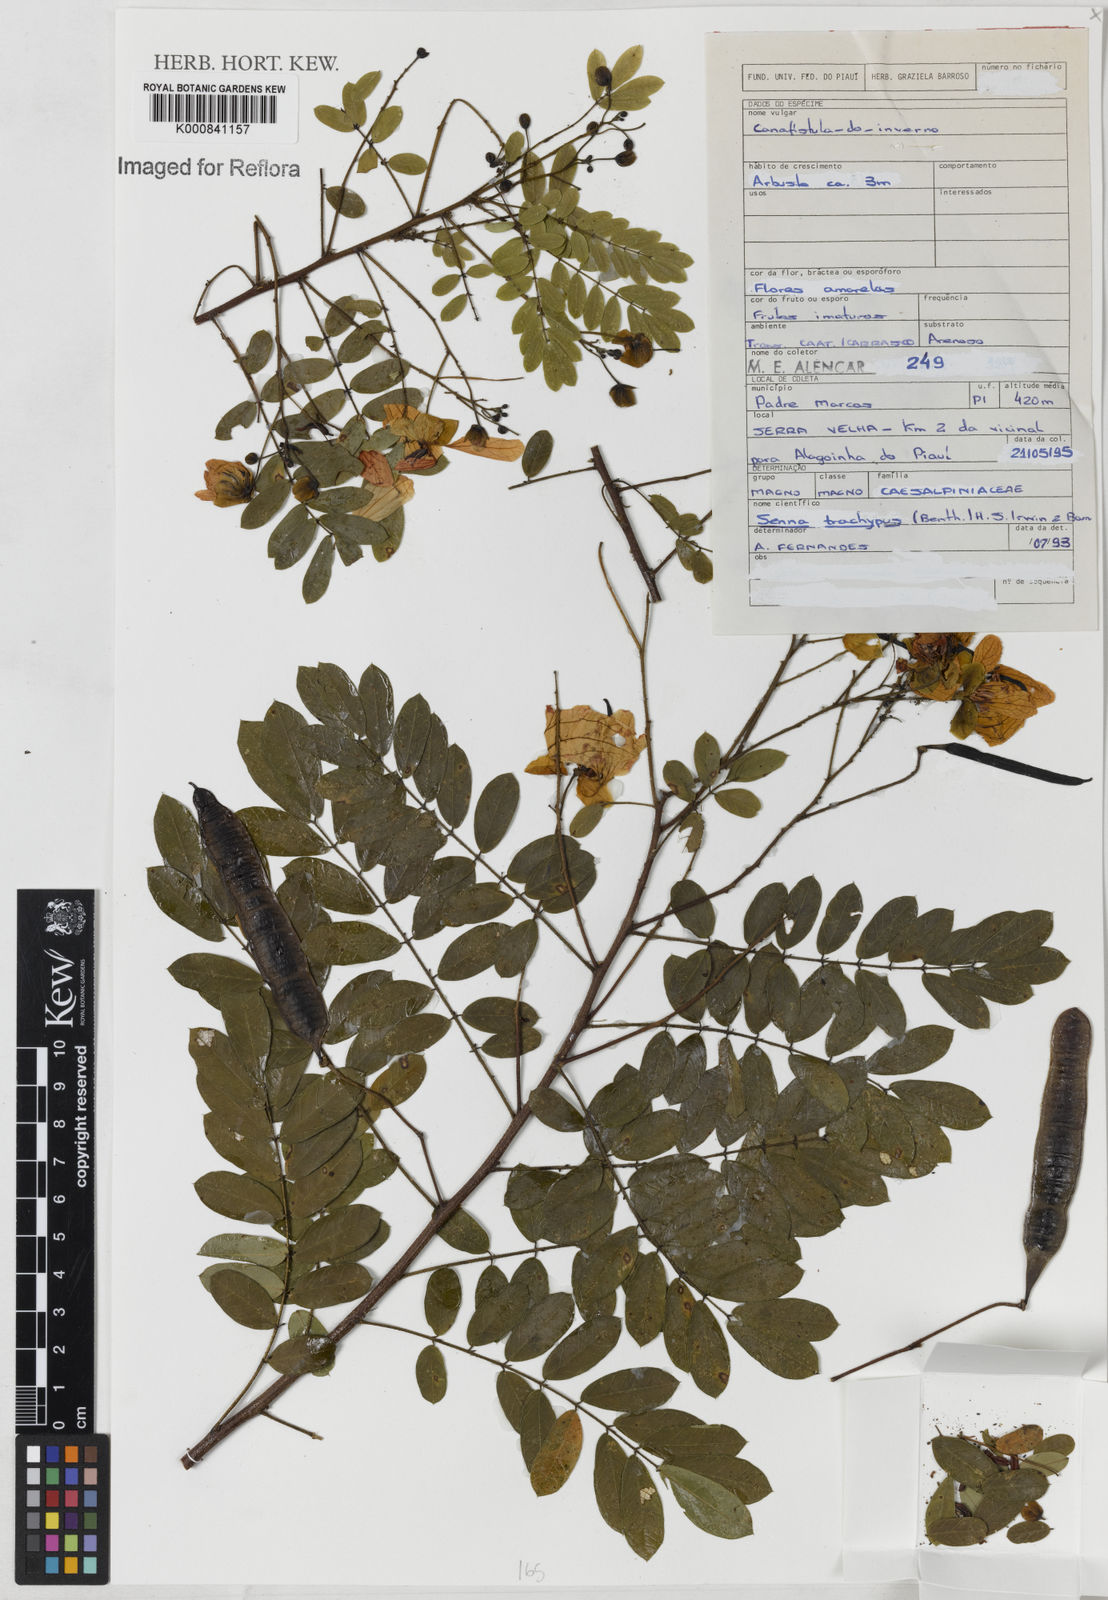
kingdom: Plantae
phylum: Tracheophyta
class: Magnoliopsida
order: Fabales
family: Fabaceae
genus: Senna
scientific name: Senna trachypus
